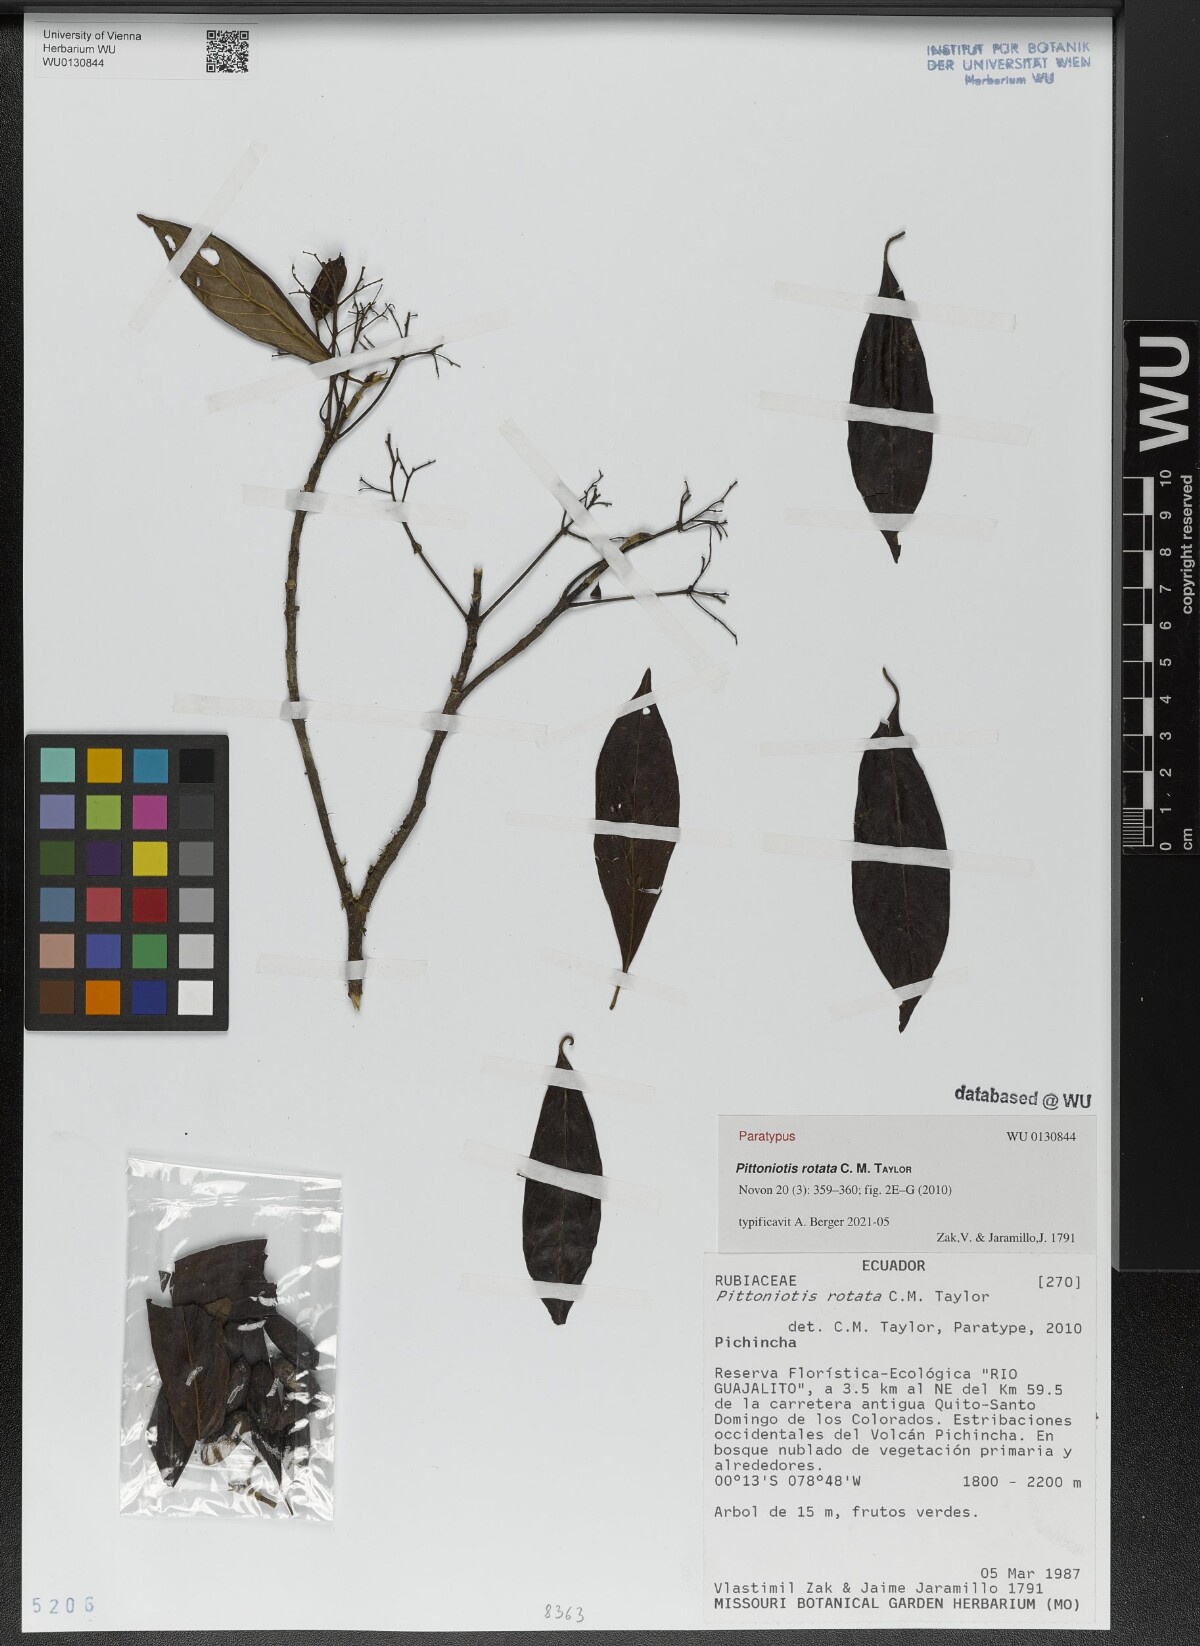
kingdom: Plantae
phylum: Tracheophyta
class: Magnoliopsida
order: Gentianales
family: Rubiaceae
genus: Pittoniotis
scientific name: Pittoniotis rotata
